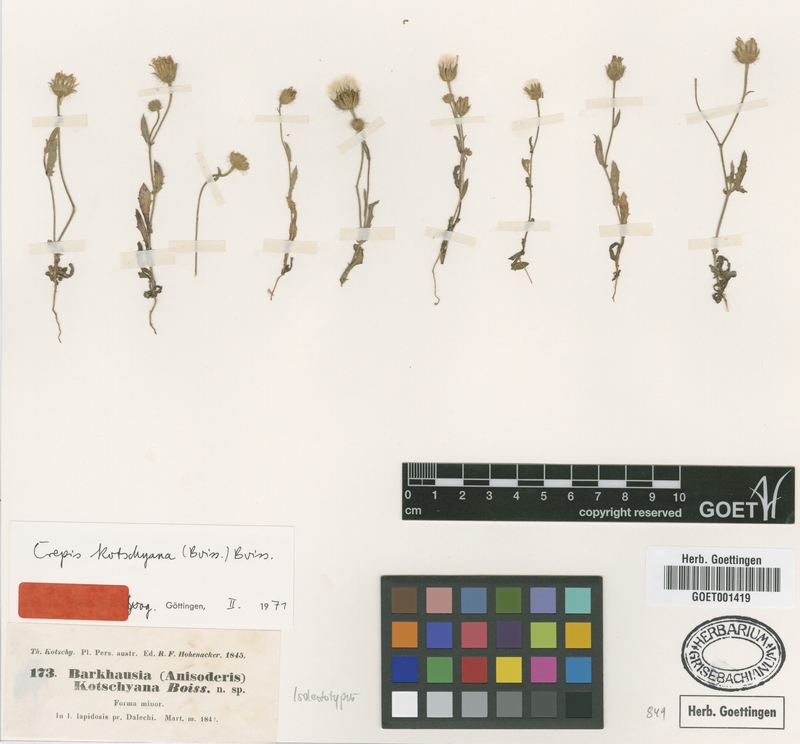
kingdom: Plantae
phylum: Tracheophyta
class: Magnoliopsida
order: Asterales
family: Asteraceae
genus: Crepis
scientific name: Crepis kotschyana
